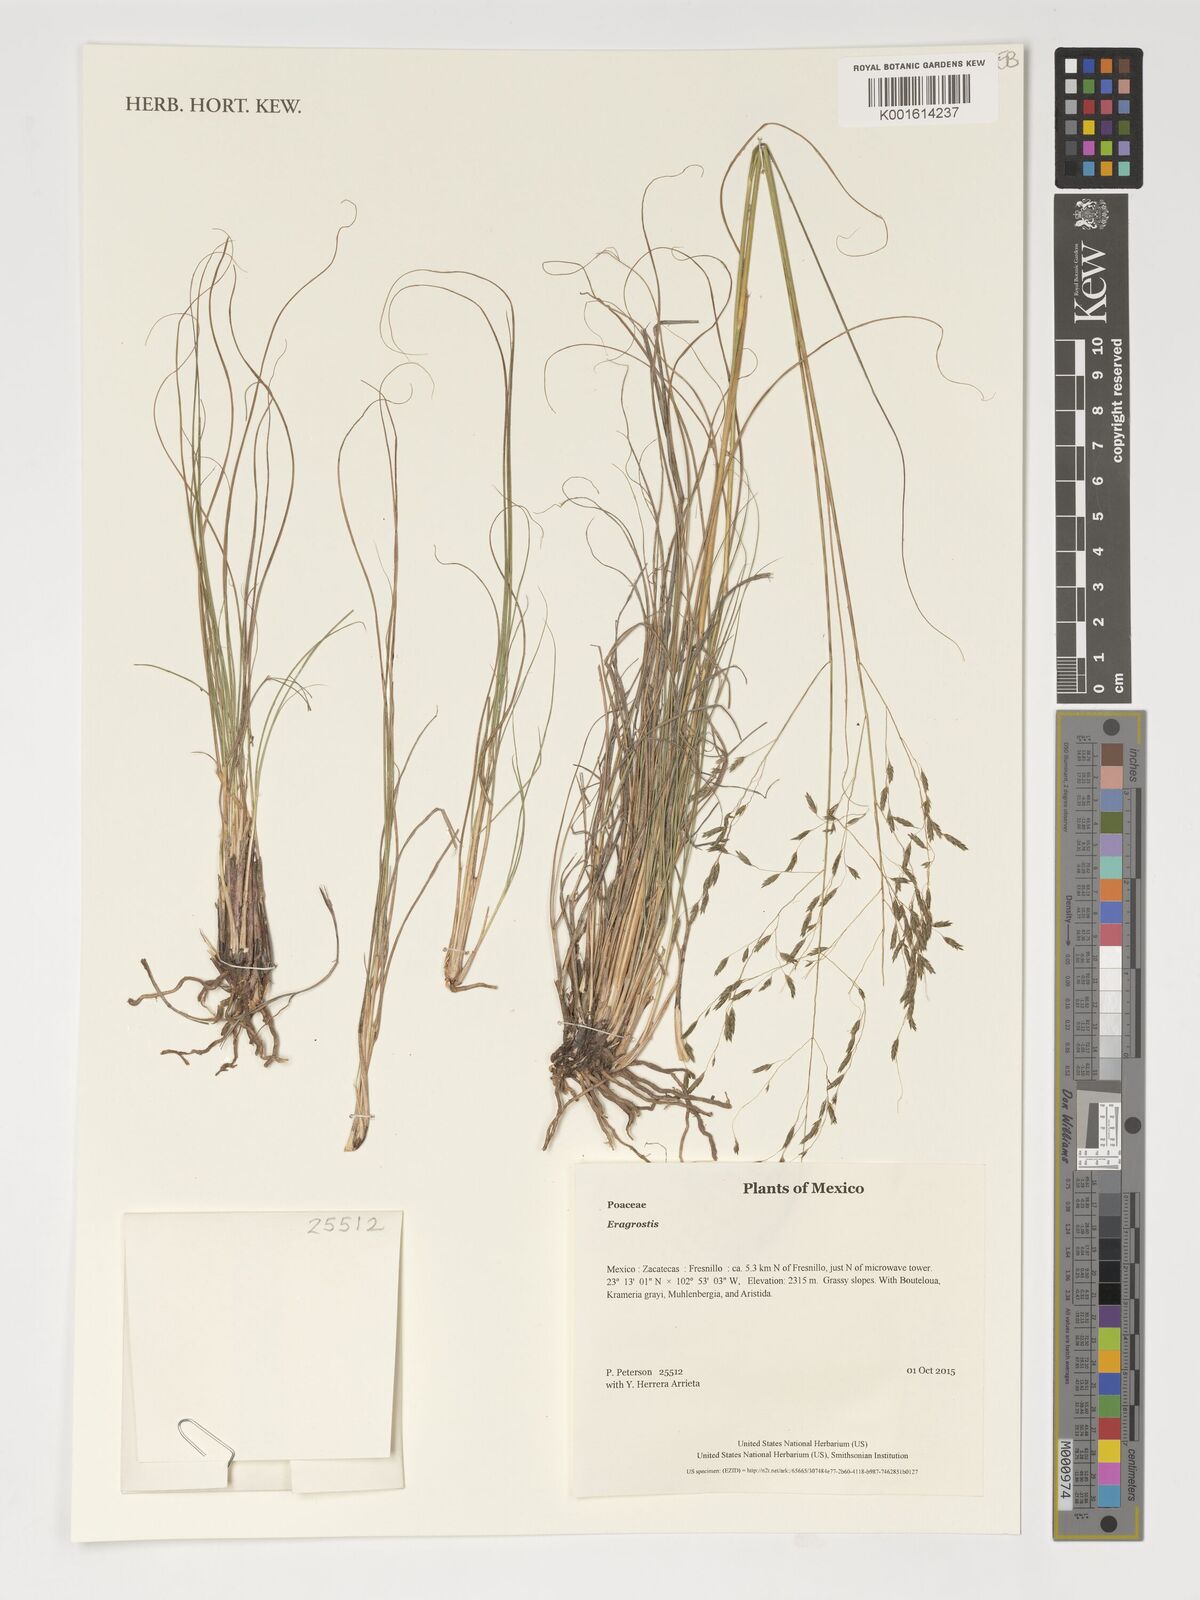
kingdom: Plantae
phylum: Tracheophyta
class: Liliopsida
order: Poales
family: Poaceae
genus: Eragrostis
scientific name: Eragrostis
